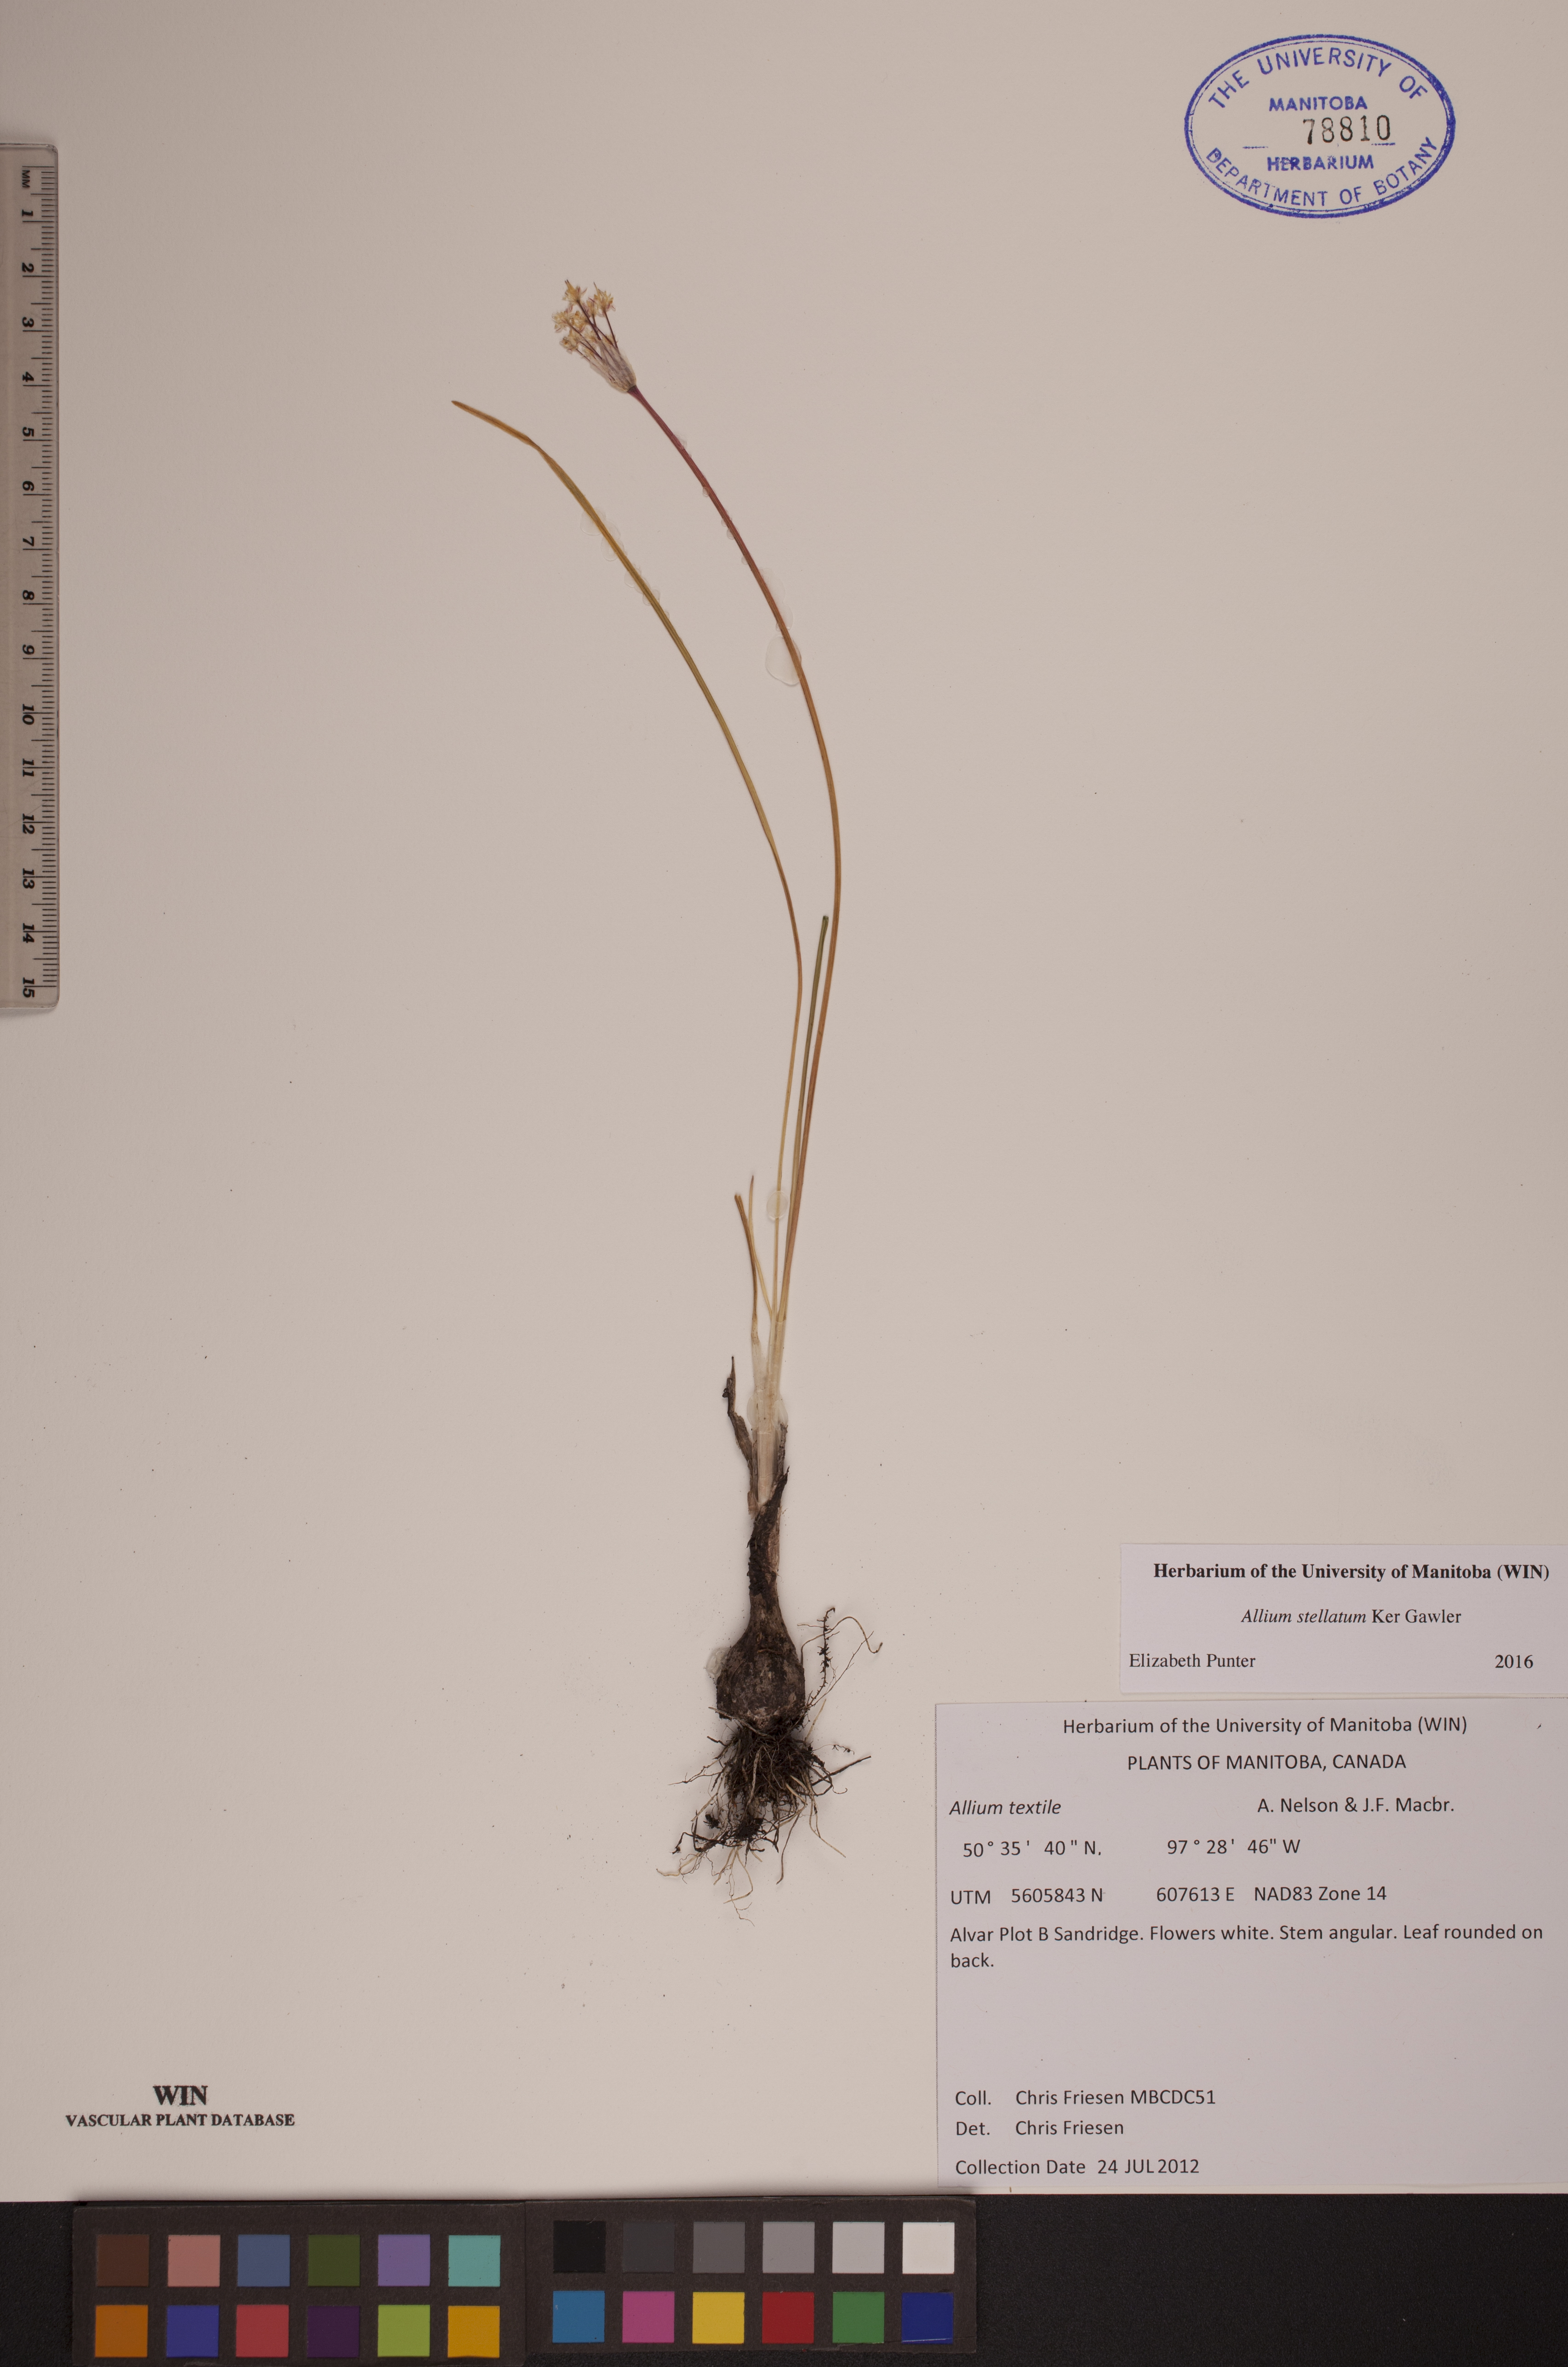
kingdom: Plantae
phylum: Tracheophyta
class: Liliopsida
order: Asparagales
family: Amaryllidaceae
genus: Allium
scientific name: Allium stellatum
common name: Autumn onion
